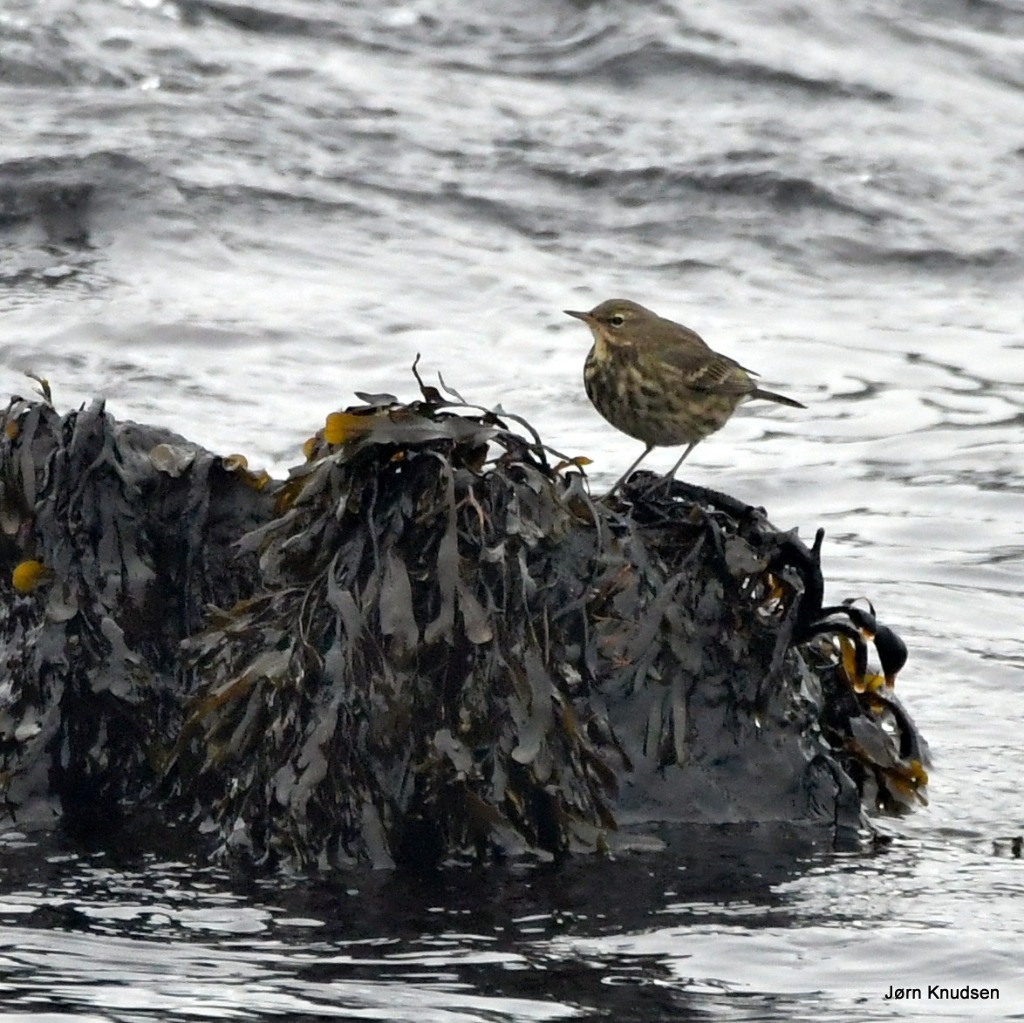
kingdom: Animalia
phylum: Chordata
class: Aves
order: Passeriformes
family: Motacillidae
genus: Anthus
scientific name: Anthus petrosus
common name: Skærpiber
